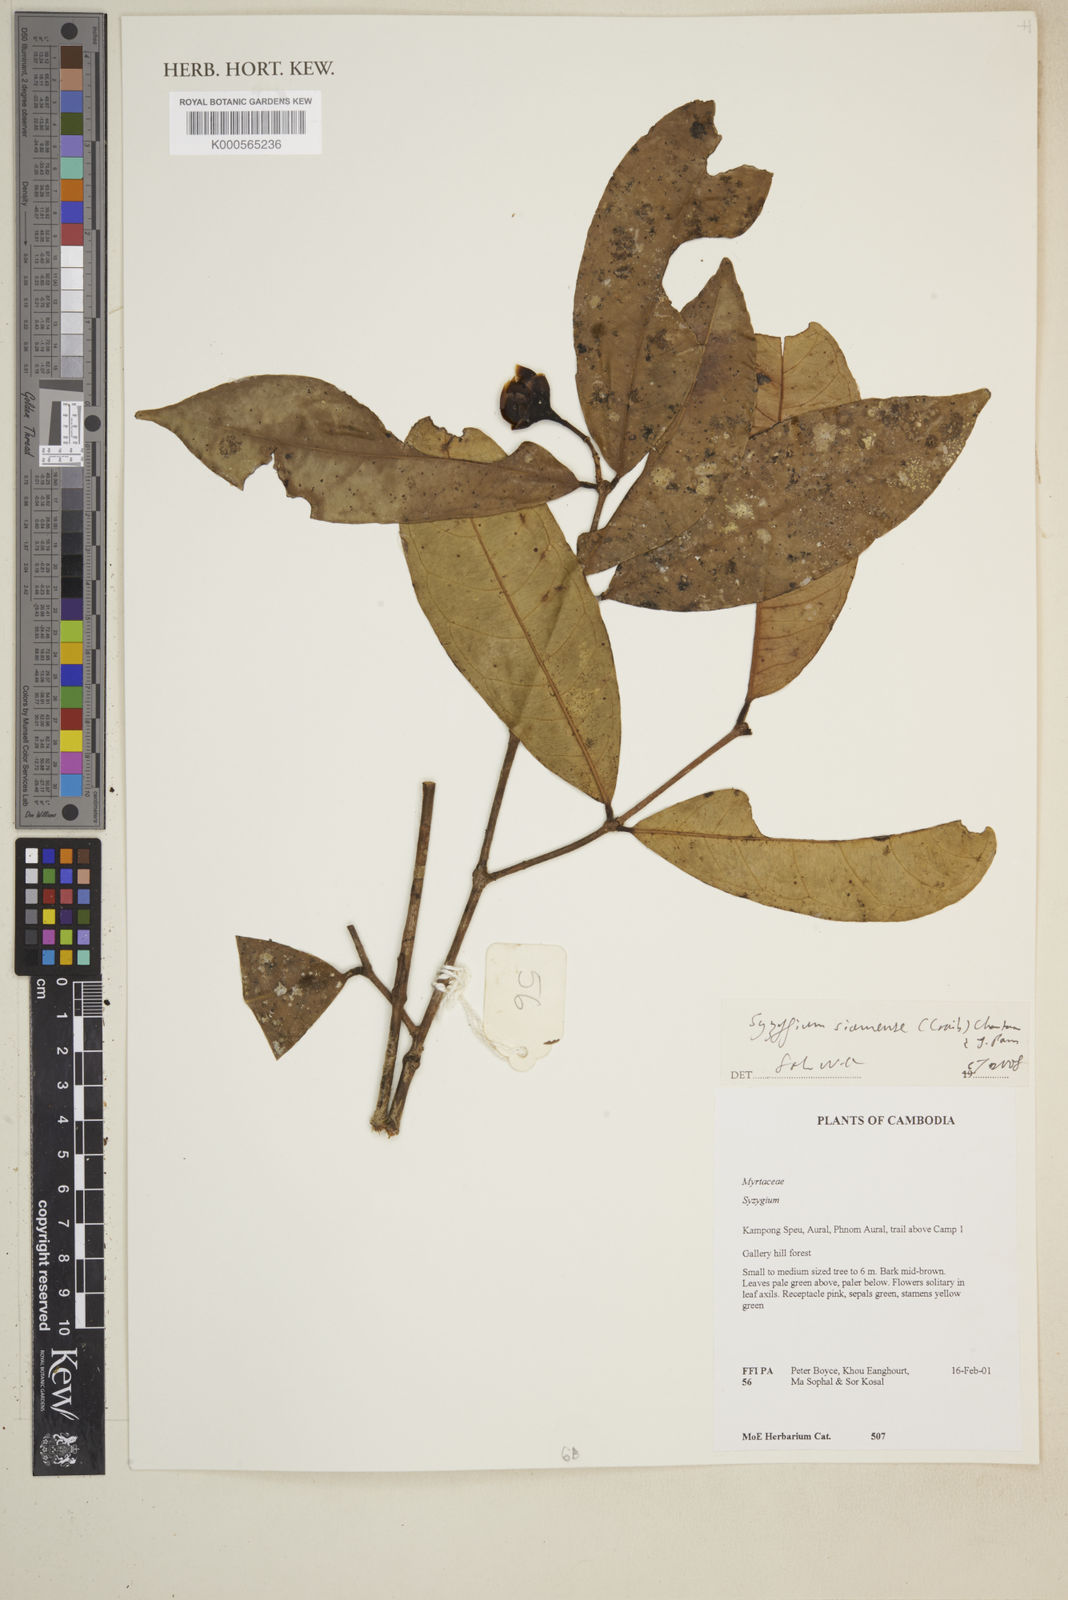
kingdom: Plantae
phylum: Tracheophyta
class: Magnoliopsida
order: Myrtales
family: Myrtaceae
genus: Syzygium
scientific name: Syzygium siamense
